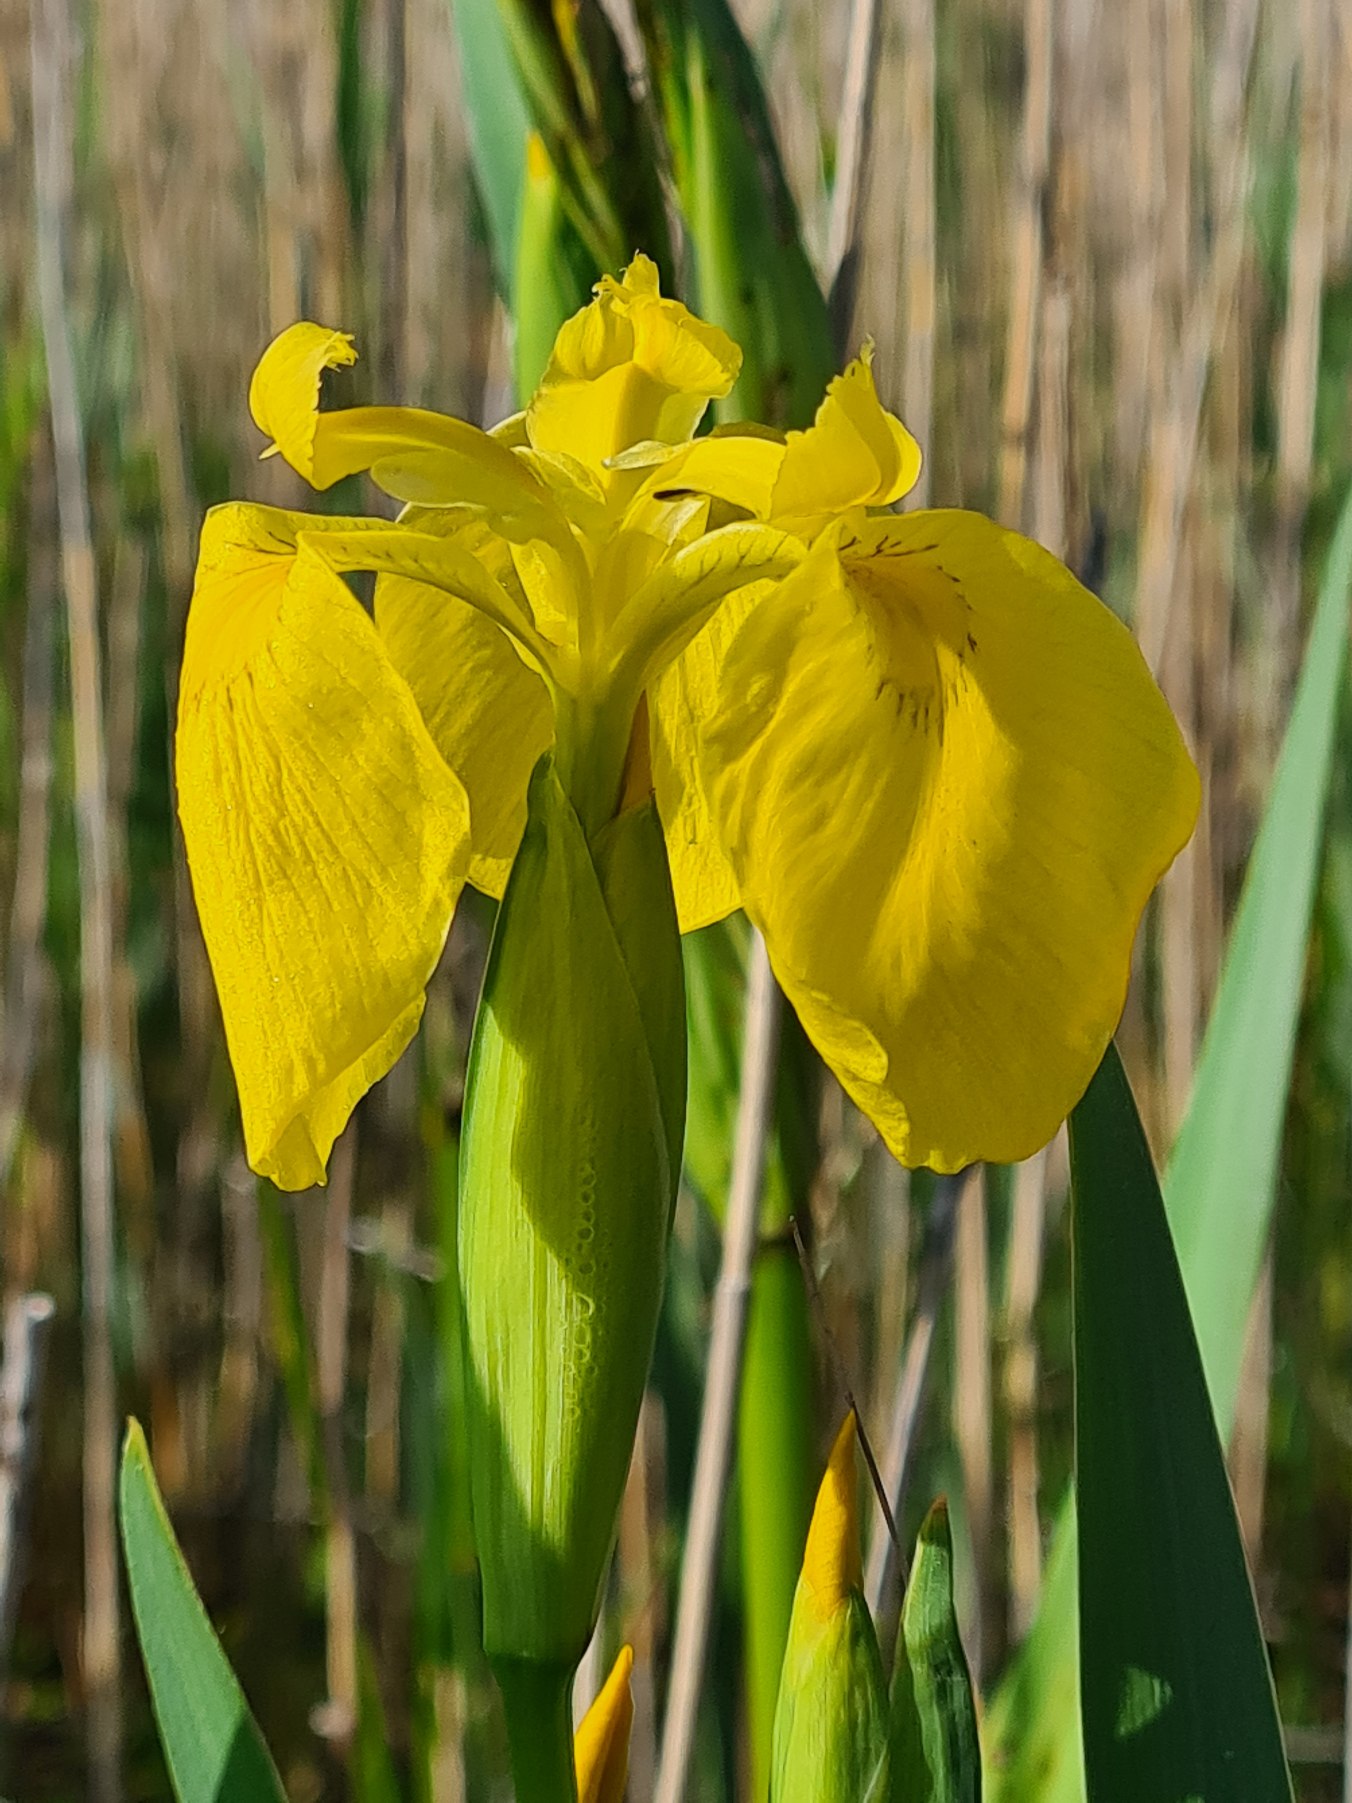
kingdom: Plantae
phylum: Tracheophyta
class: Liliopsida
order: Asparagales
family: Iridaceae
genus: Iris
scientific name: Iris pseudacorus
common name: Gul iris
